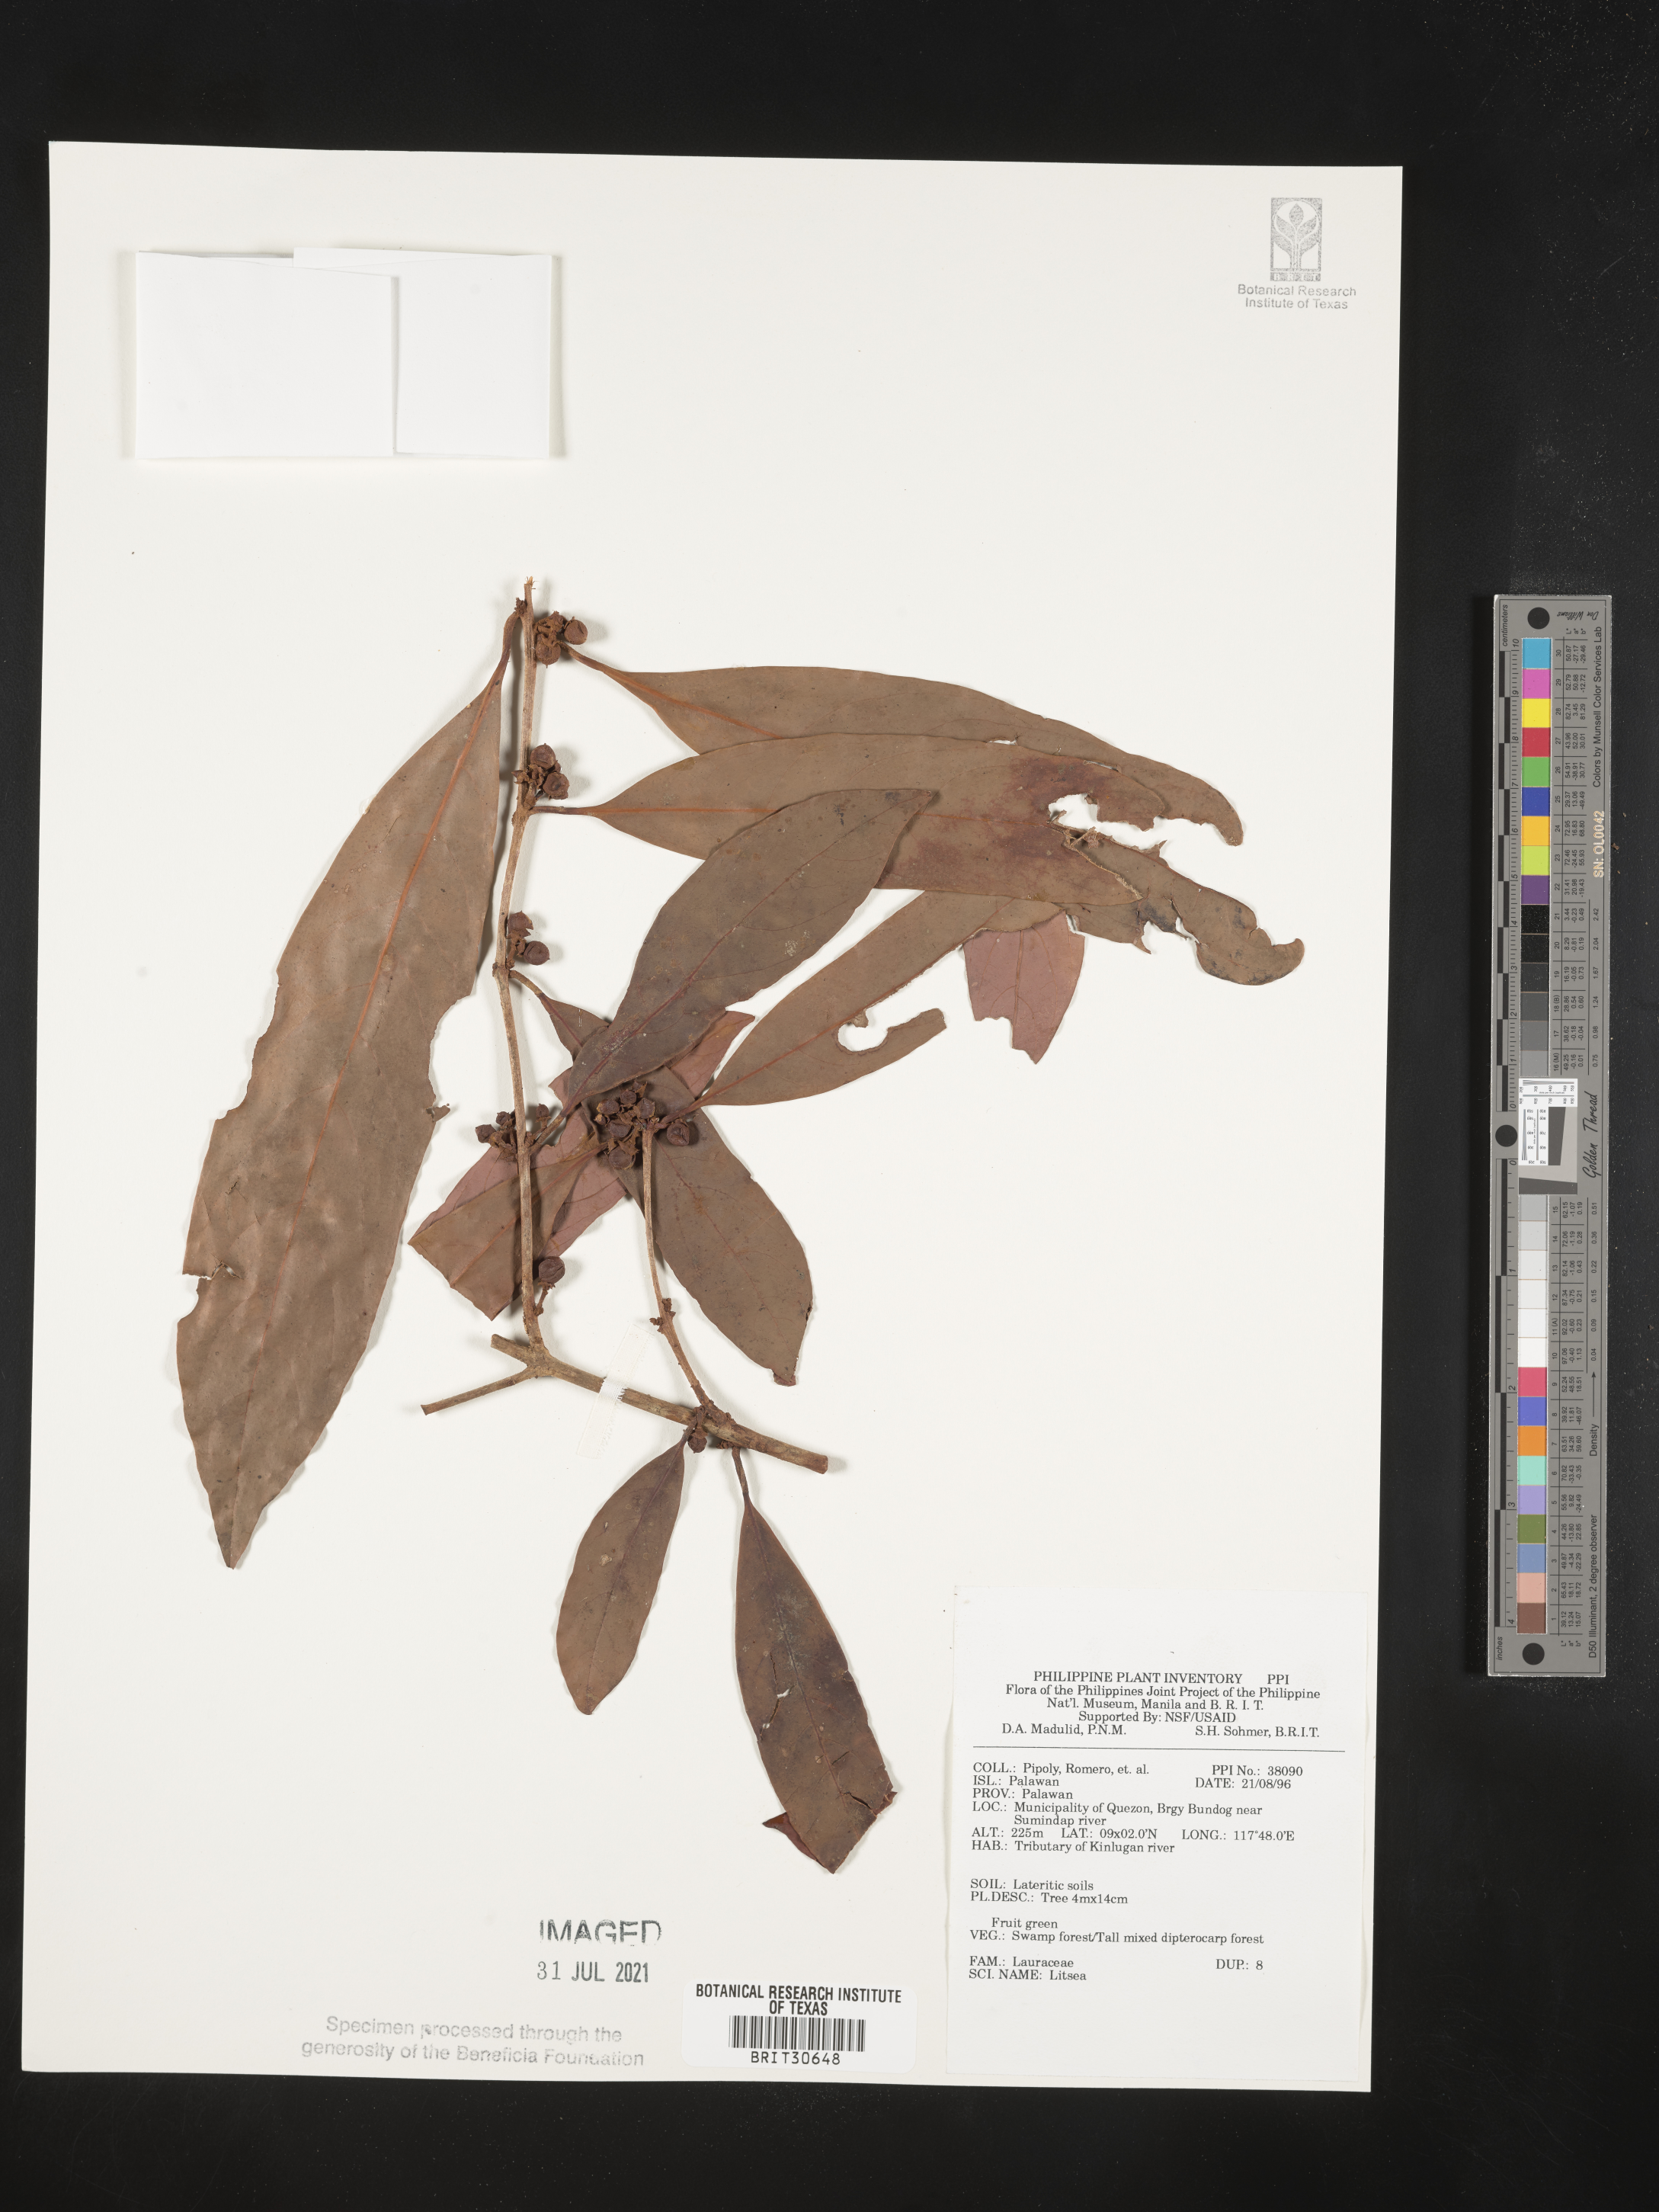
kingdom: Plantae
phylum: Tracheophyta
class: Magnoliopsida
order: Laurales
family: Lauraceae
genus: Litsea
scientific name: Litsea
